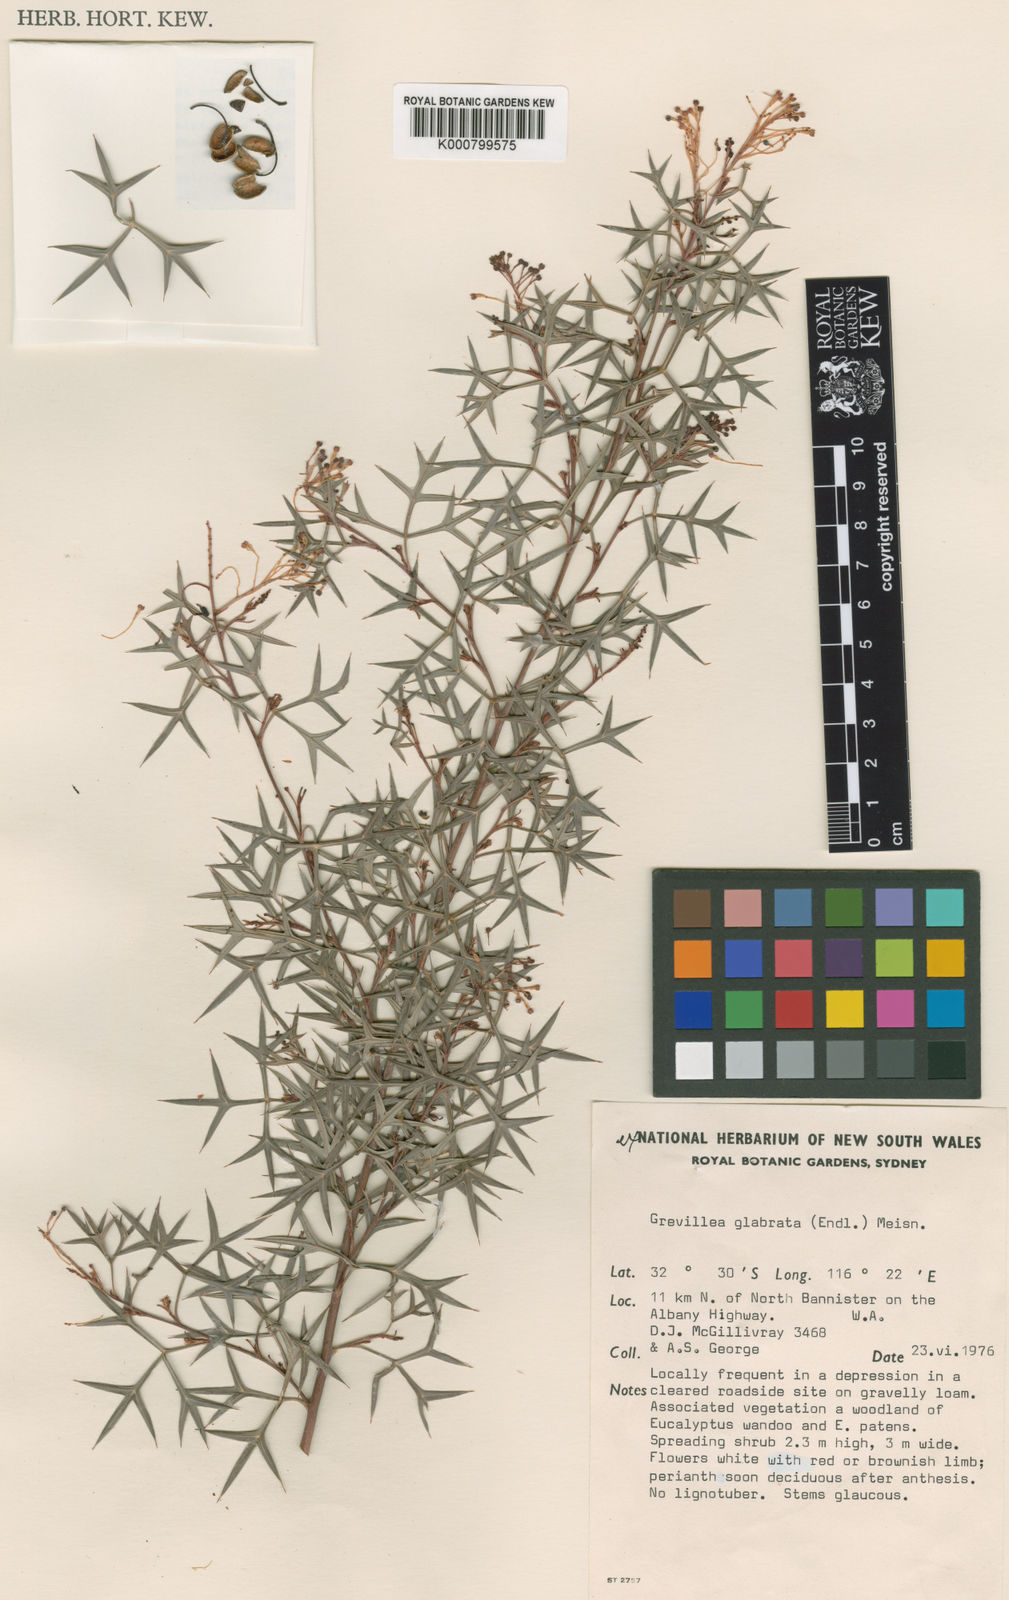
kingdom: Plantae
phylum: Tracheophyta
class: Magnoliopsida
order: Proteales
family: Proteaceae
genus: Grevillea
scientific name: Grevillea dissectifolia
